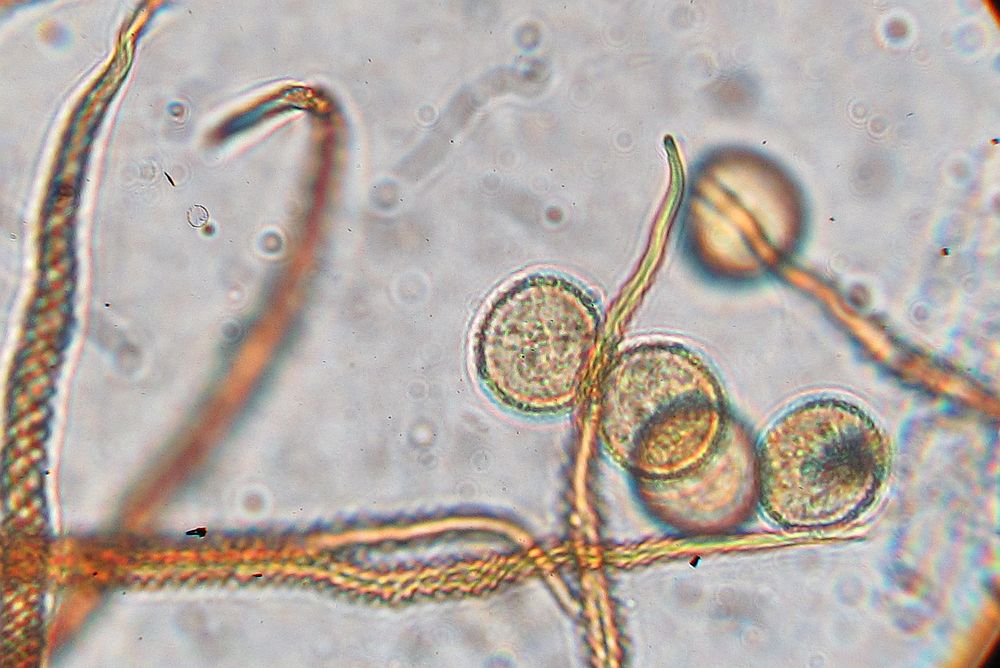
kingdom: Protozoa
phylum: Mycetozoa
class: Myxomycetes
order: Trichiales
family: Trichiaceae
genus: Trichia
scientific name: Trichia
